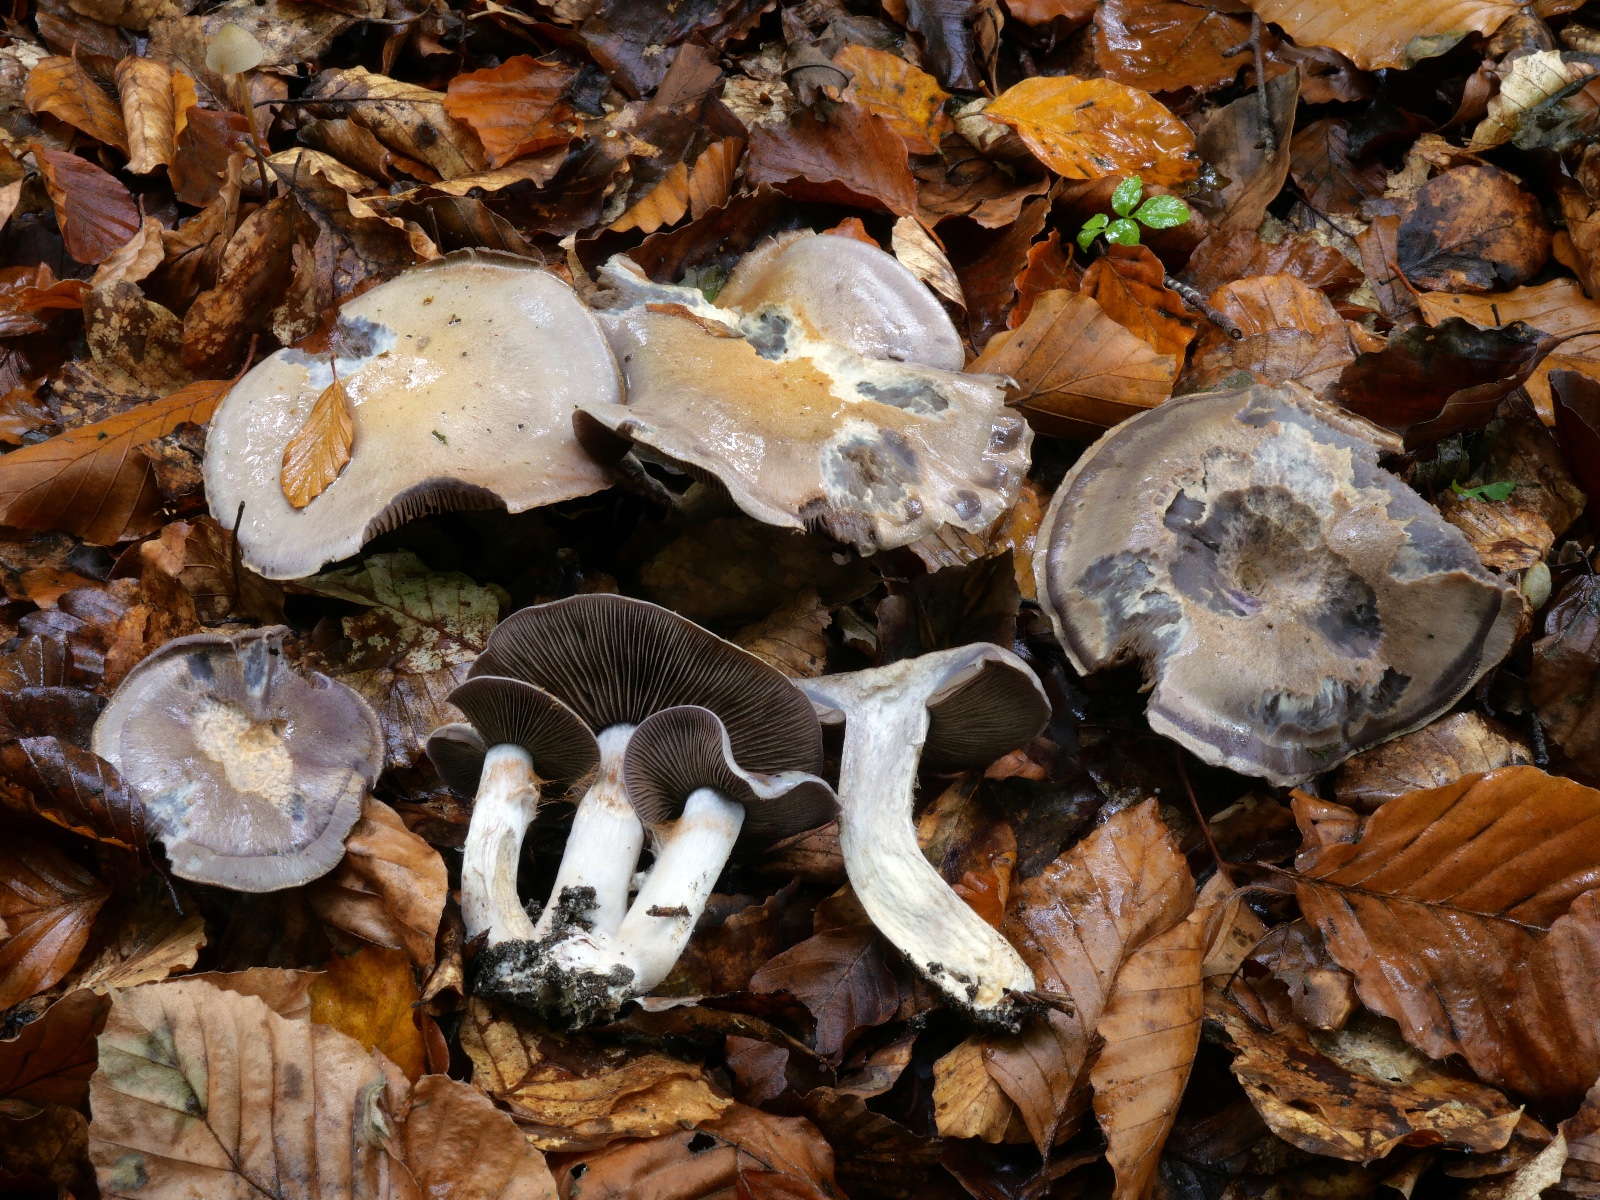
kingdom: Fungi
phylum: Basidiomycota
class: Agaricomycetes
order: Agaricales
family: Cortinariaceae
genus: Cortinarius
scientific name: Cortinarius infractus
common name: galde-slørhat
